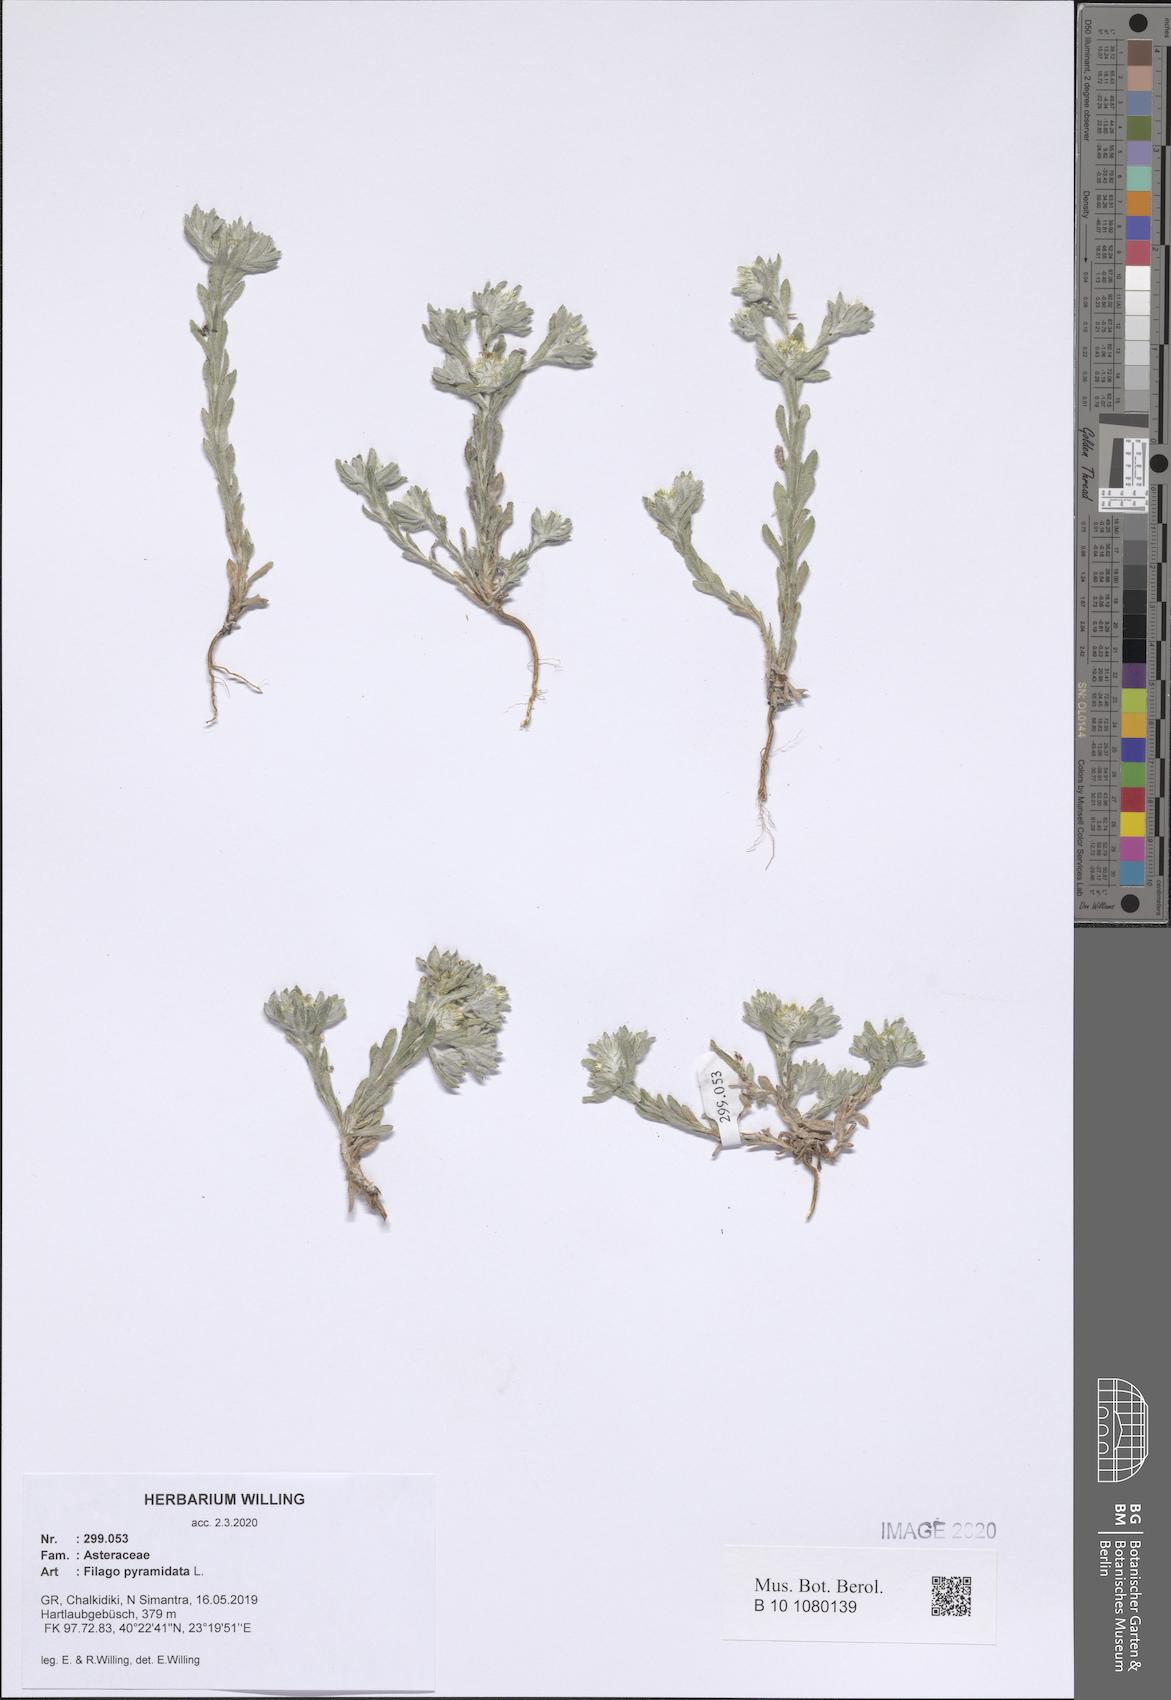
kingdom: Plantae
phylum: Tracheophyta
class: Magnoliopsida
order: Asterales
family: Asteraceae
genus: Filago
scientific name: Filago pyramidata
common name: Broad-leaved cudweed
